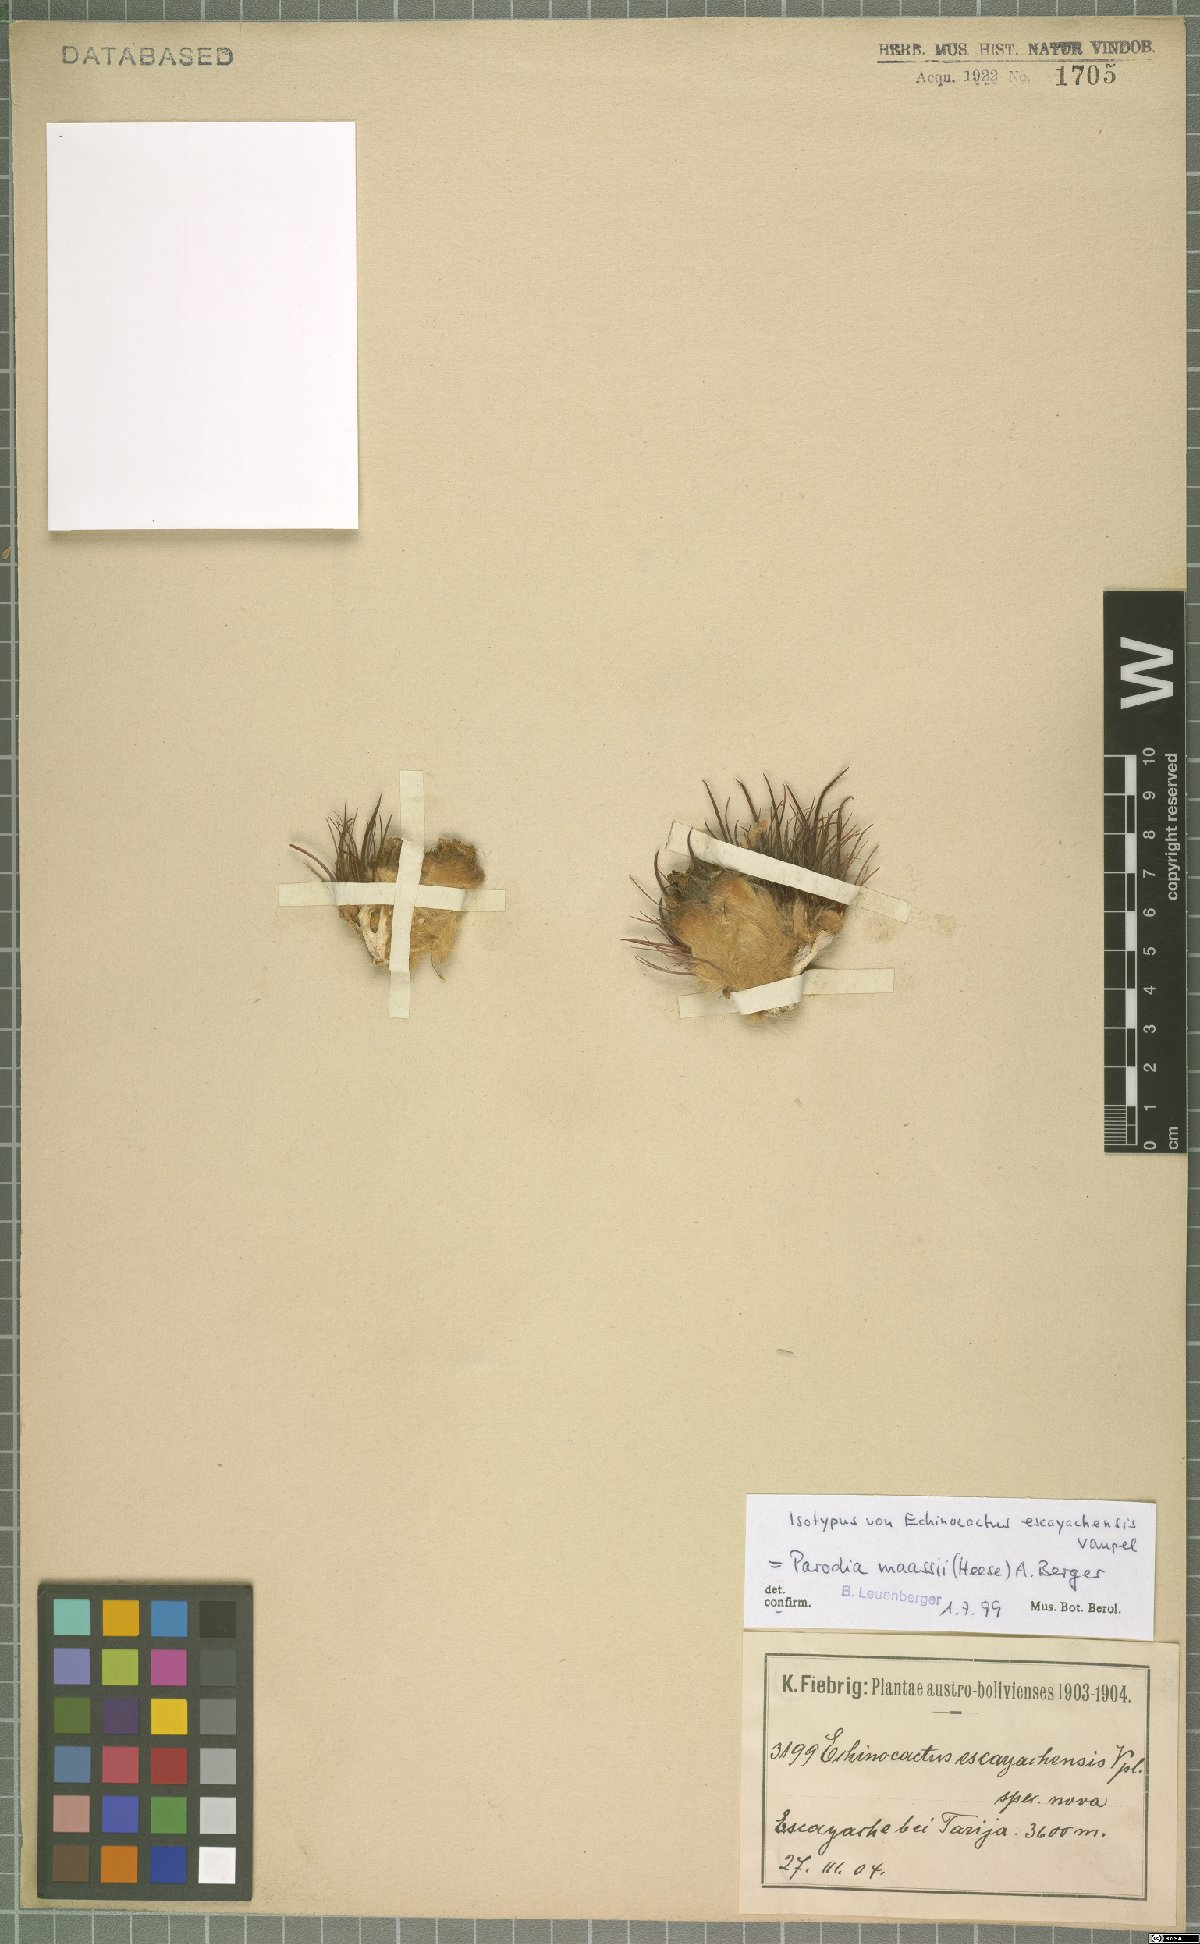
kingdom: Plantae
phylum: Tracheophyta
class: Magnoliopsida
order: Caryophyllales
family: Cactaceae
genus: Parodia
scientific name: Parodia maassii
